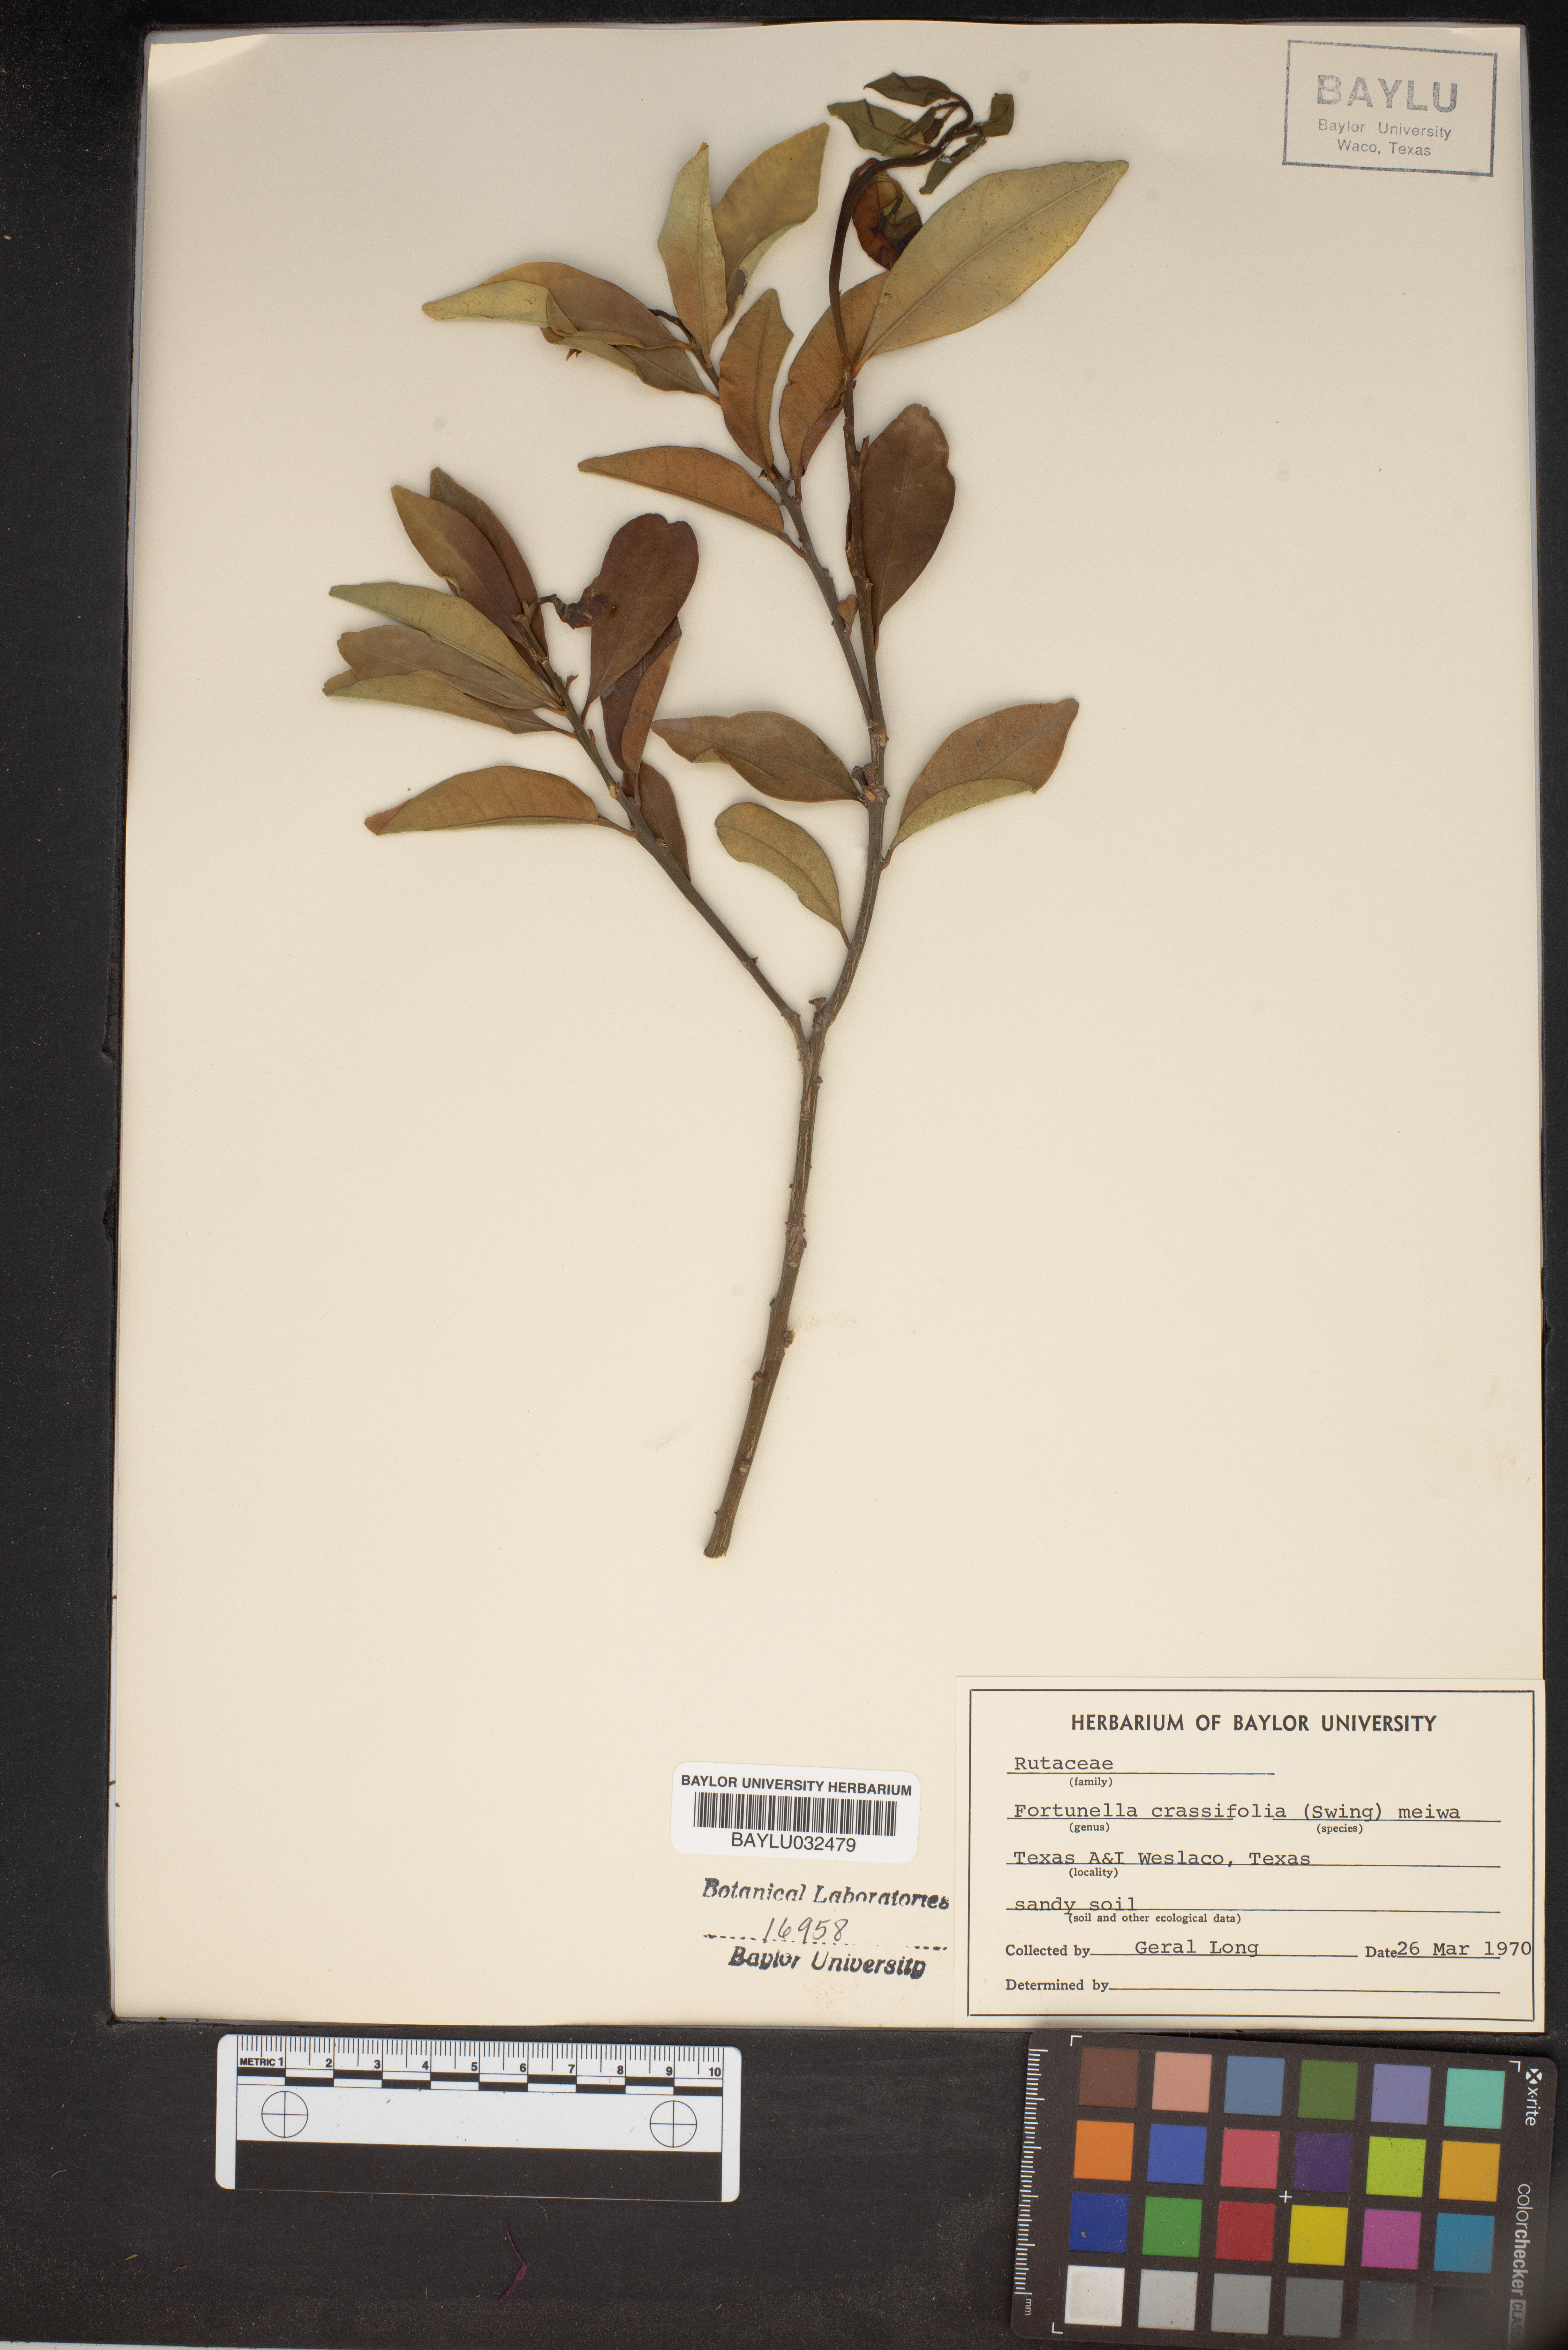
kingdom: Plantae
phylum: Tracheophyta
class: Magnoliopsida
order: Sapindales
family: Rutaceae
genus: Citrus
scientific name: Citrus japonica
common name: Kumquat
